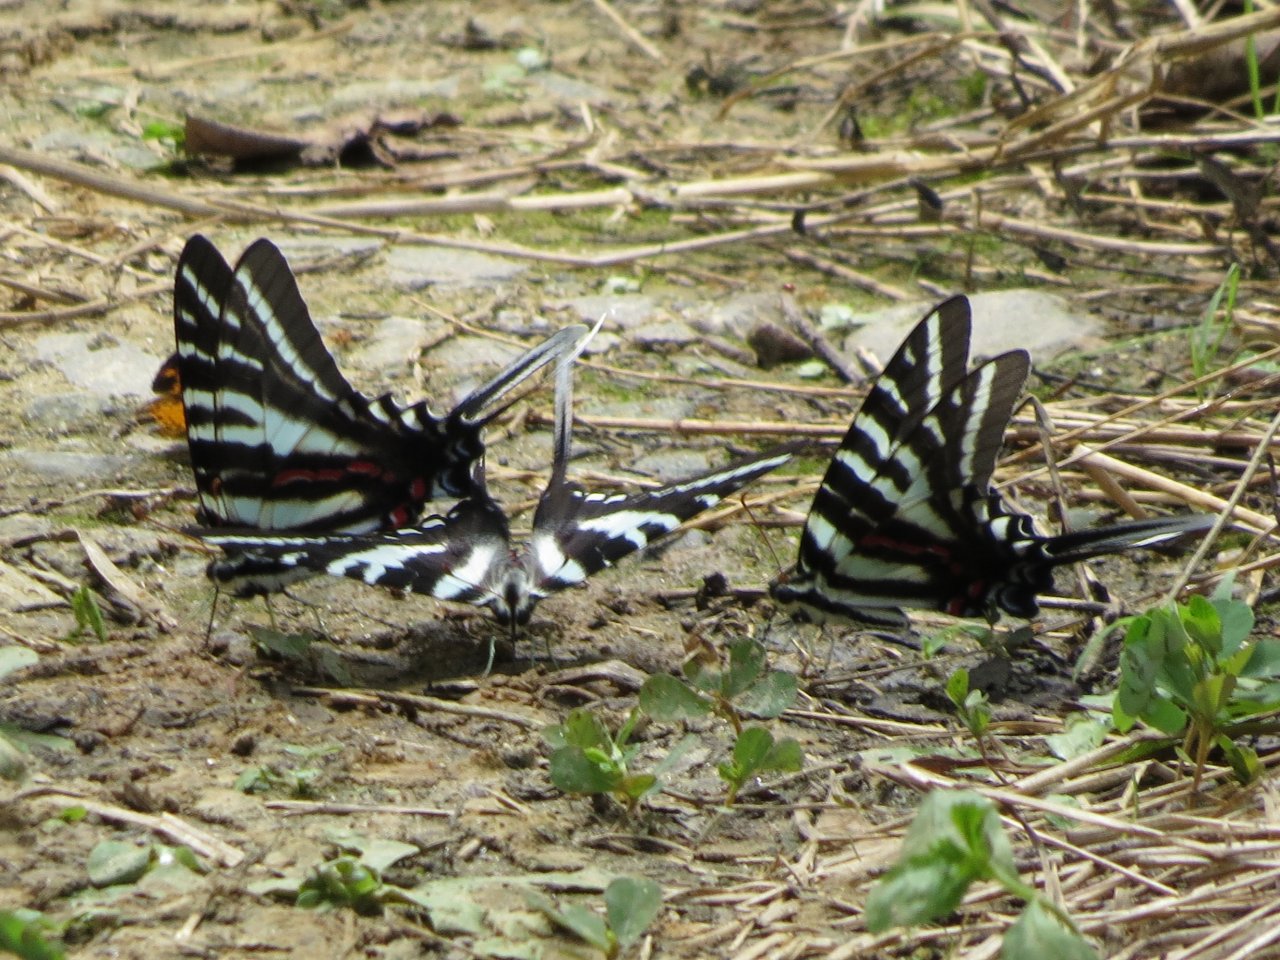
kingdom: Animalia
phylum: Arthropoda
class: Insecta
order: Lepidoptera
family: Papilionidae
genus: Protographium
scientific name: Protographium marcellus
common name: Zebra Swallowtail
